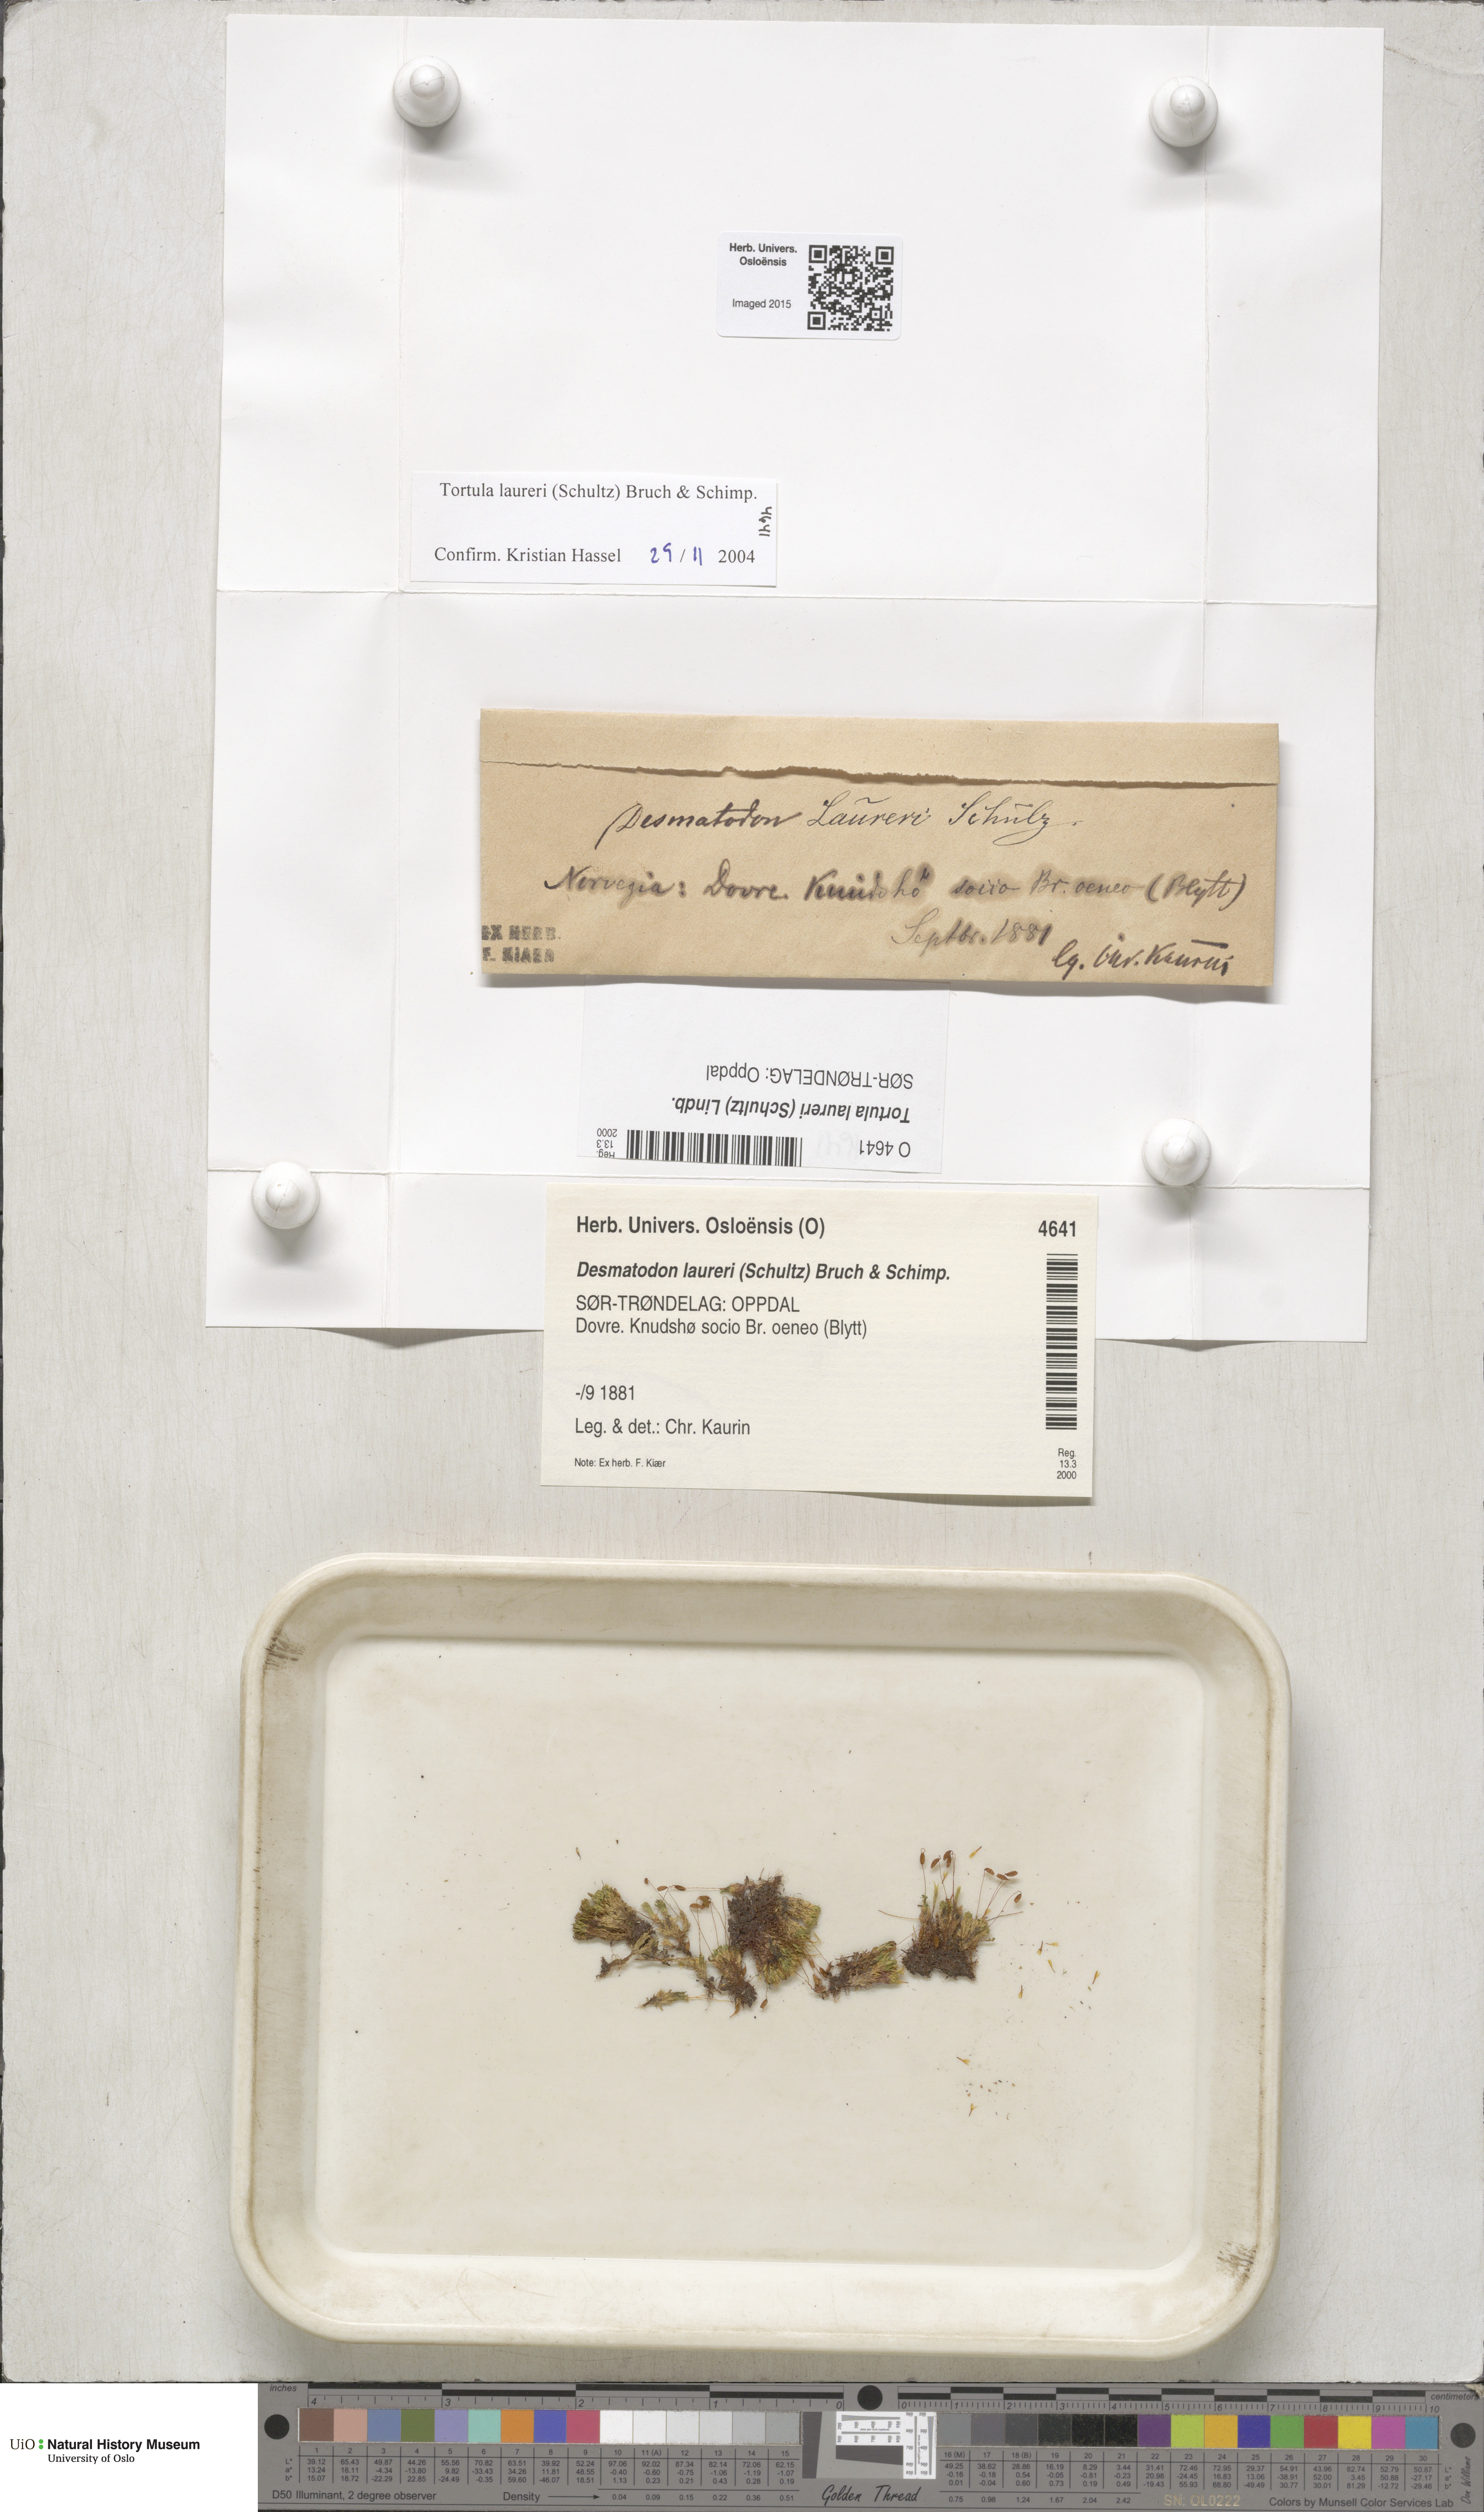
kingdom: Plantae
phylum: Bryophyta
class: Bryopsida
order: Pottiales
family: Pottiaceae
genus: Tortula
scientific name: Tortula laureri
